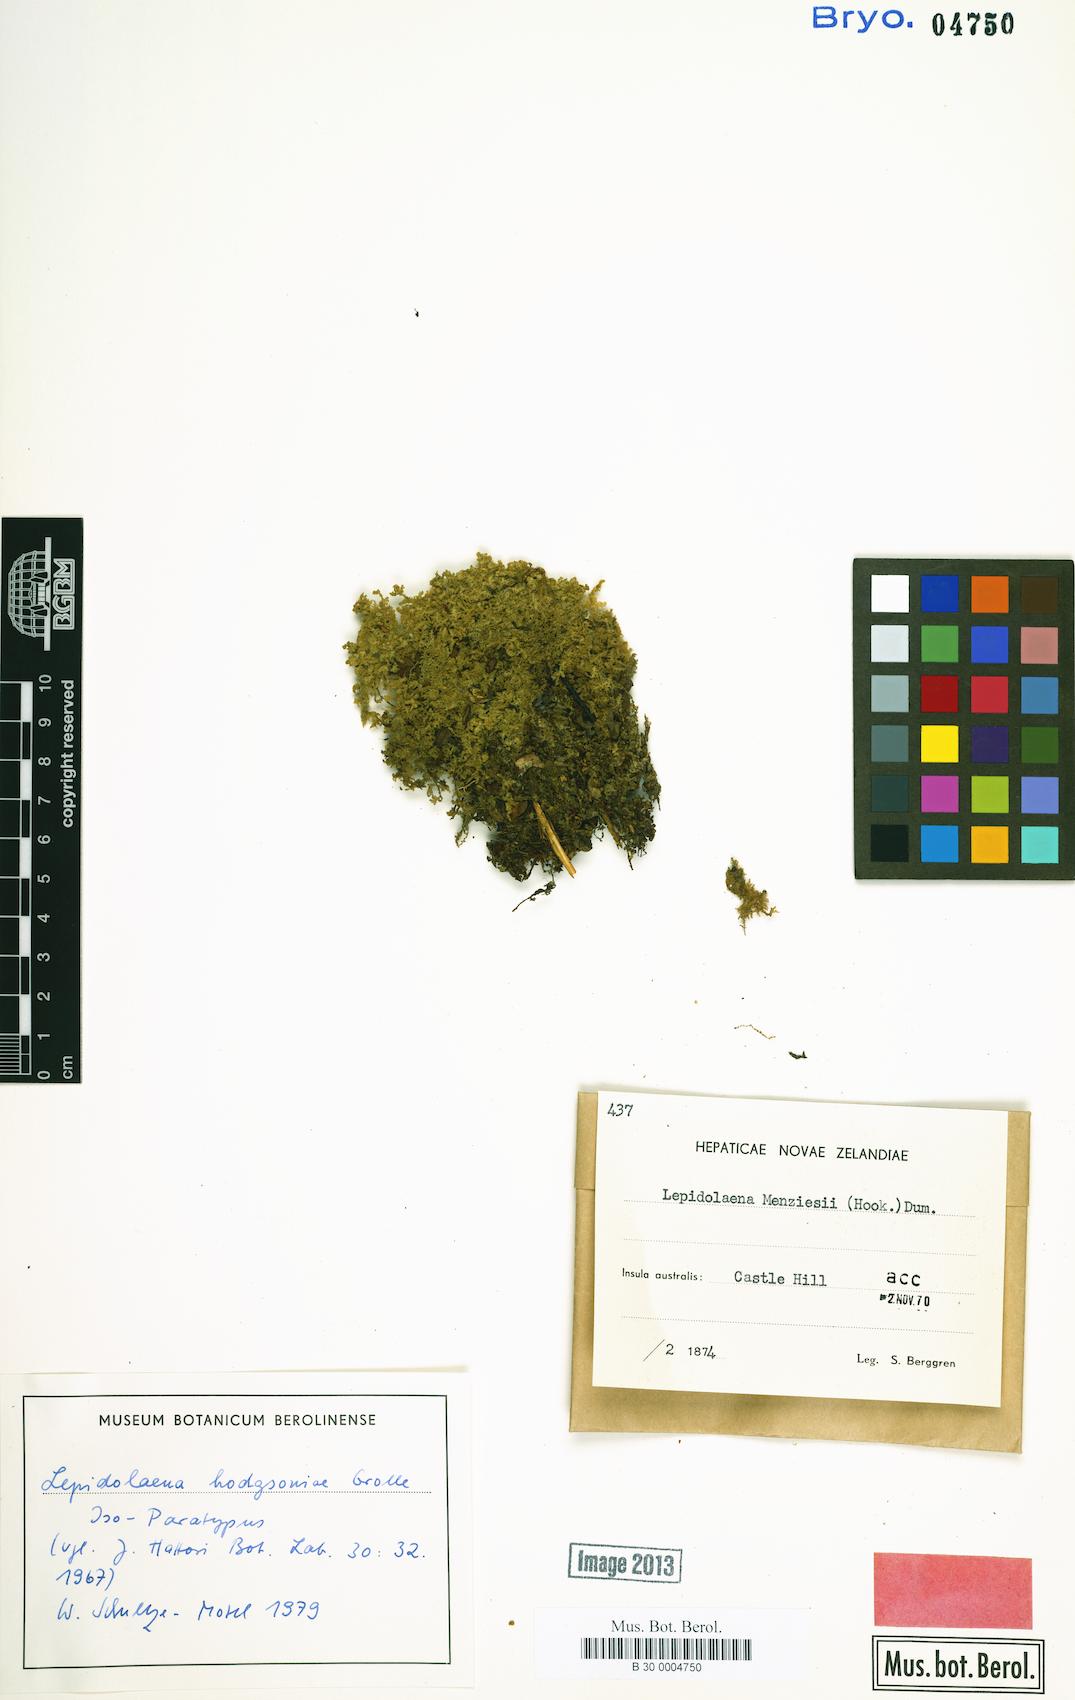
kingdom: Plantae
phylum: Marchantiophyta
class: Jungermanniopsida
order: Porellales
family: Lepidolaenaceae
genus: Lepidogyna
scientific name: Lepidogyna hodgsoniae
